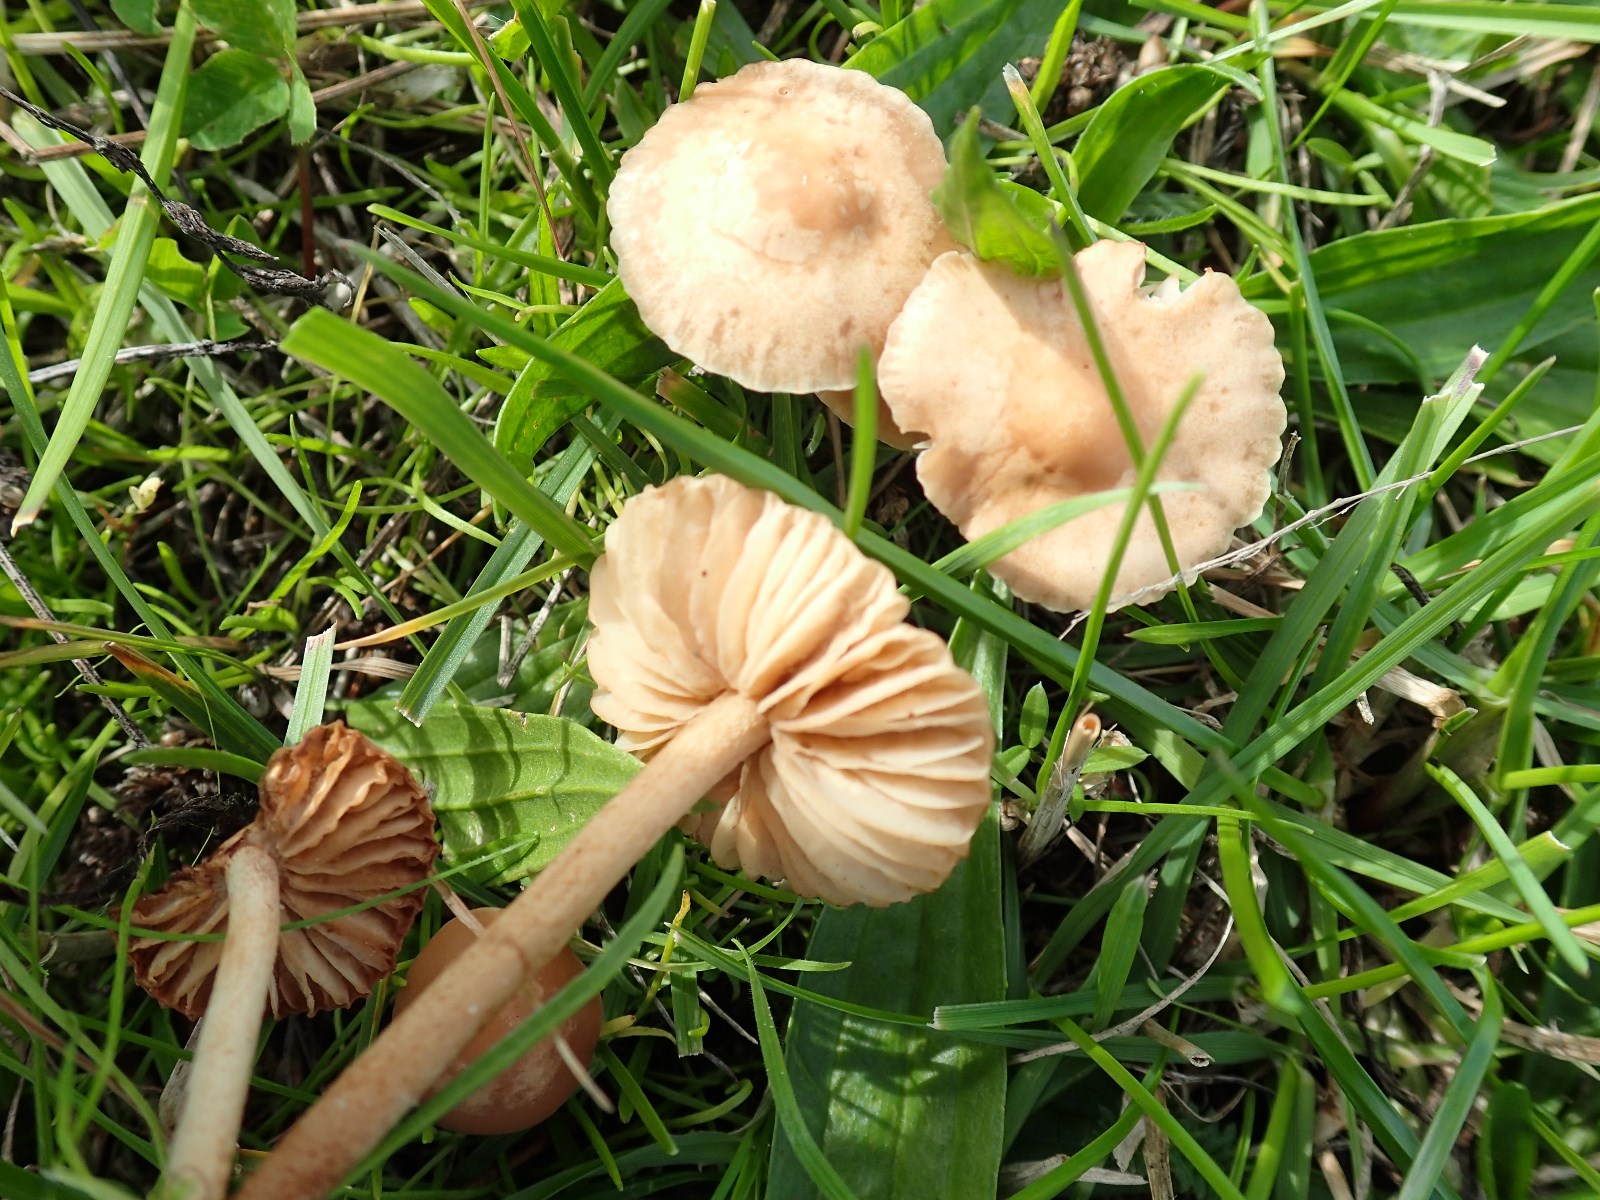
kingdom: Fungi
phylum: Basidiomycota
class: Agaricomycetes
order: Agaricales
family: Marasmiaceae
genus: Marasmius
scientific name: Marasmius oreades
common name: elledans-bruskhat
